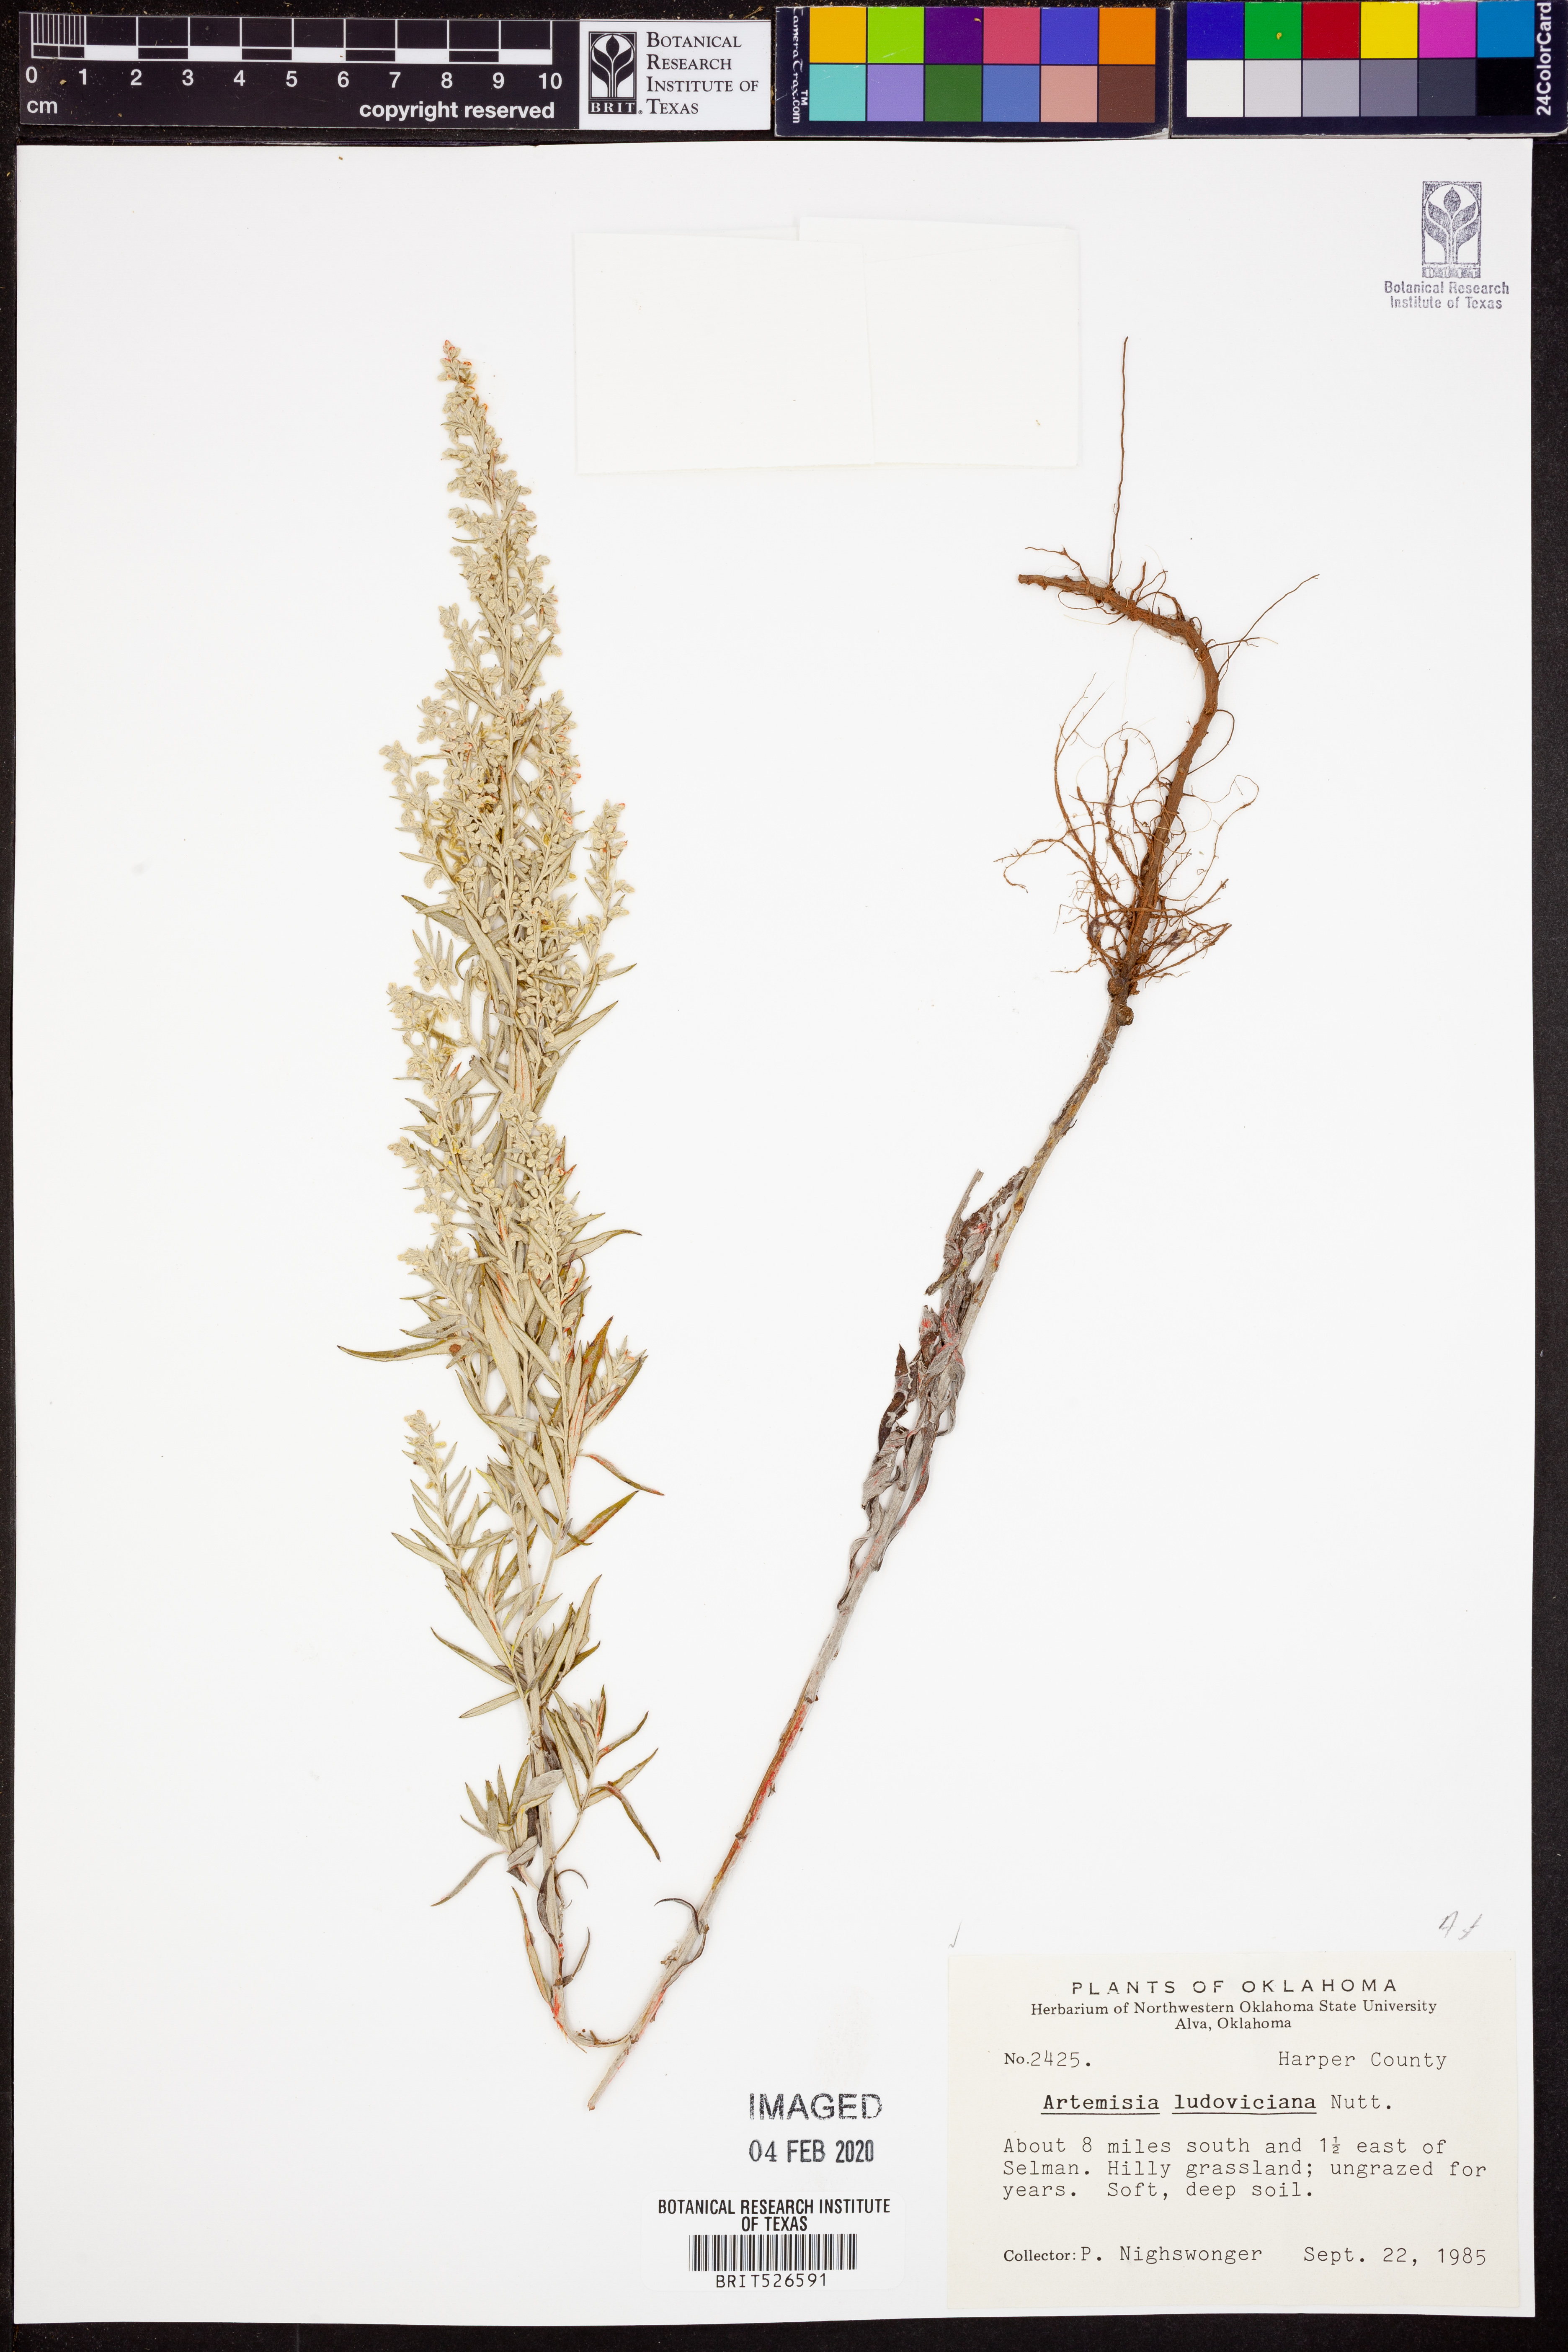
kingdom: Plantae
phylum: Tracheophyta
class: Magnoliopsida
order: Asterales
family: Asteraceae
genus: Artemisia
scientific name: Artemisia ludoviciana
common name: Western mugwort
